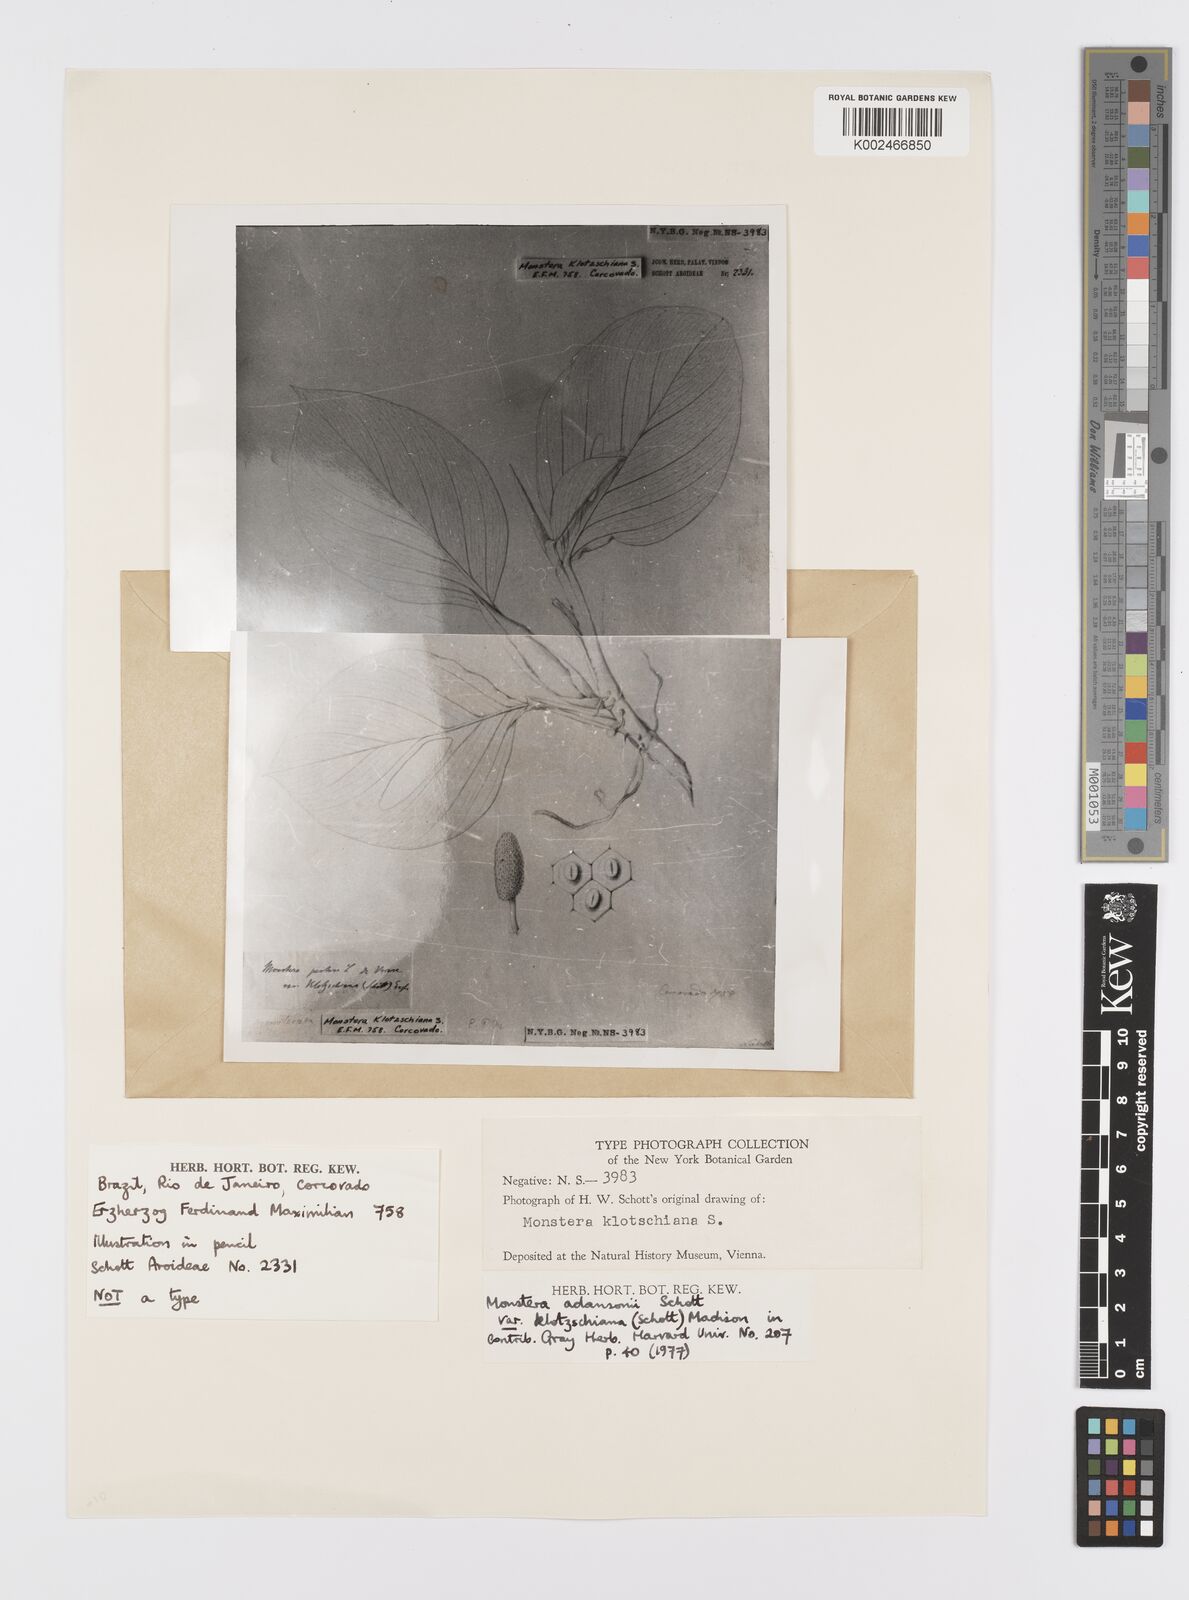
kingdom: Plantae
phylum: Tracheophyta
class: Liliopsida
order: Alismatales
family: Araceae
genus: Monstera
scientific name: Monstera adansonii
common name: Tarovine
